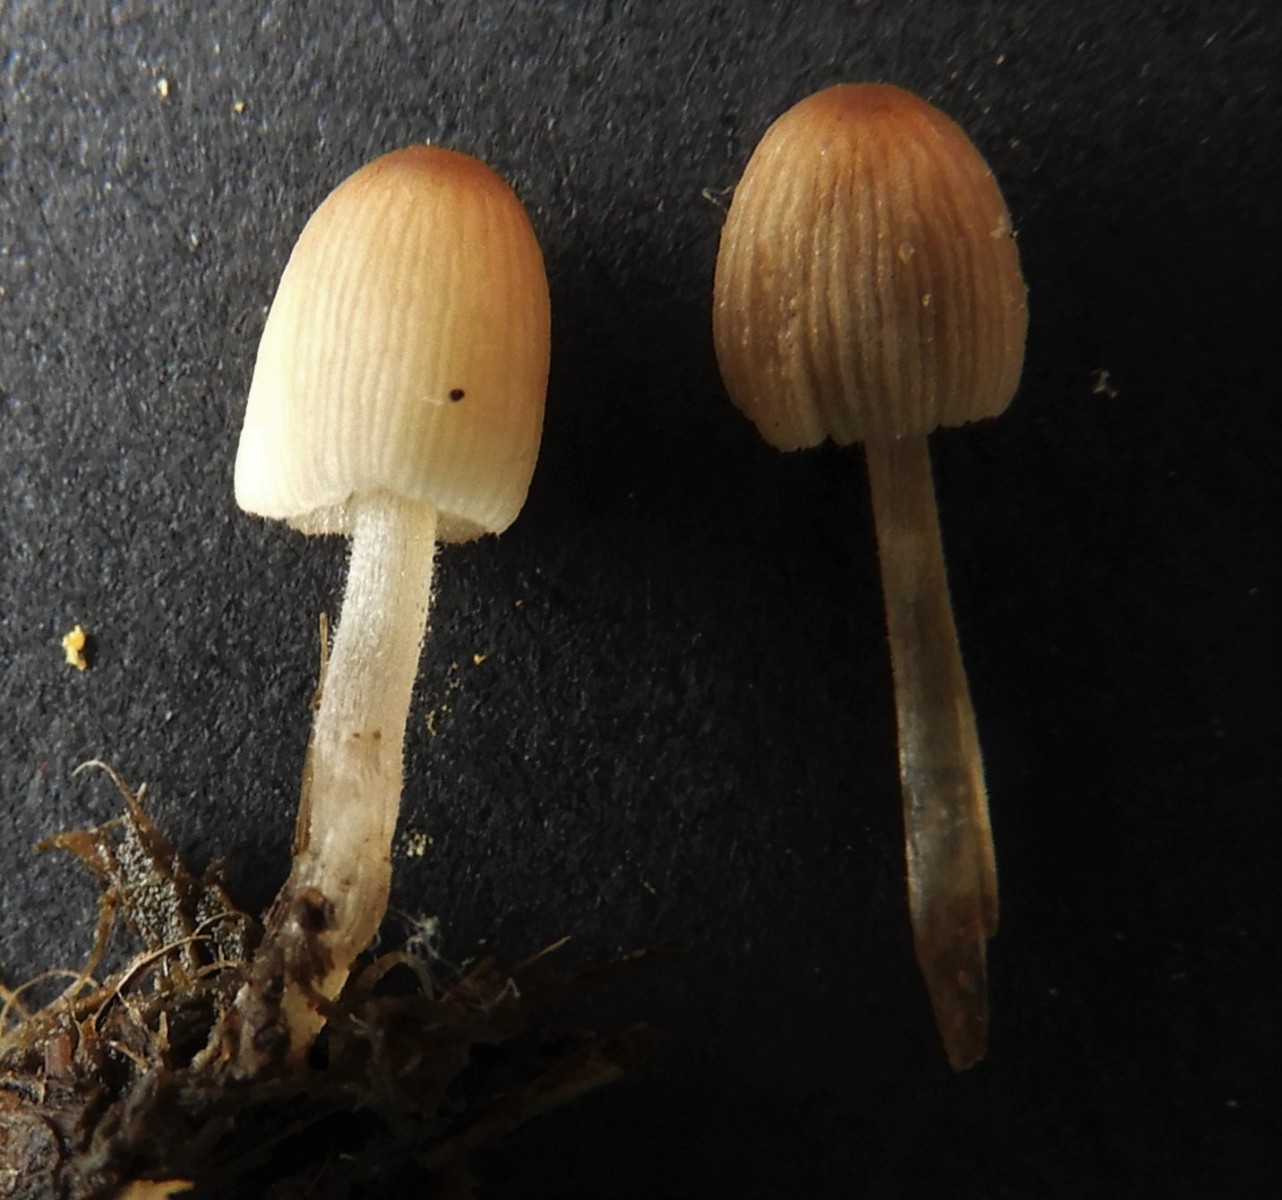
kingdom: Fungi
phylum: Basidiomycota
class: Agaricomycetes
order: Agaricales
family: Psathyrellaceae
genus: Coprinellus
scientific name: Coprinellus
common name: blækhat
